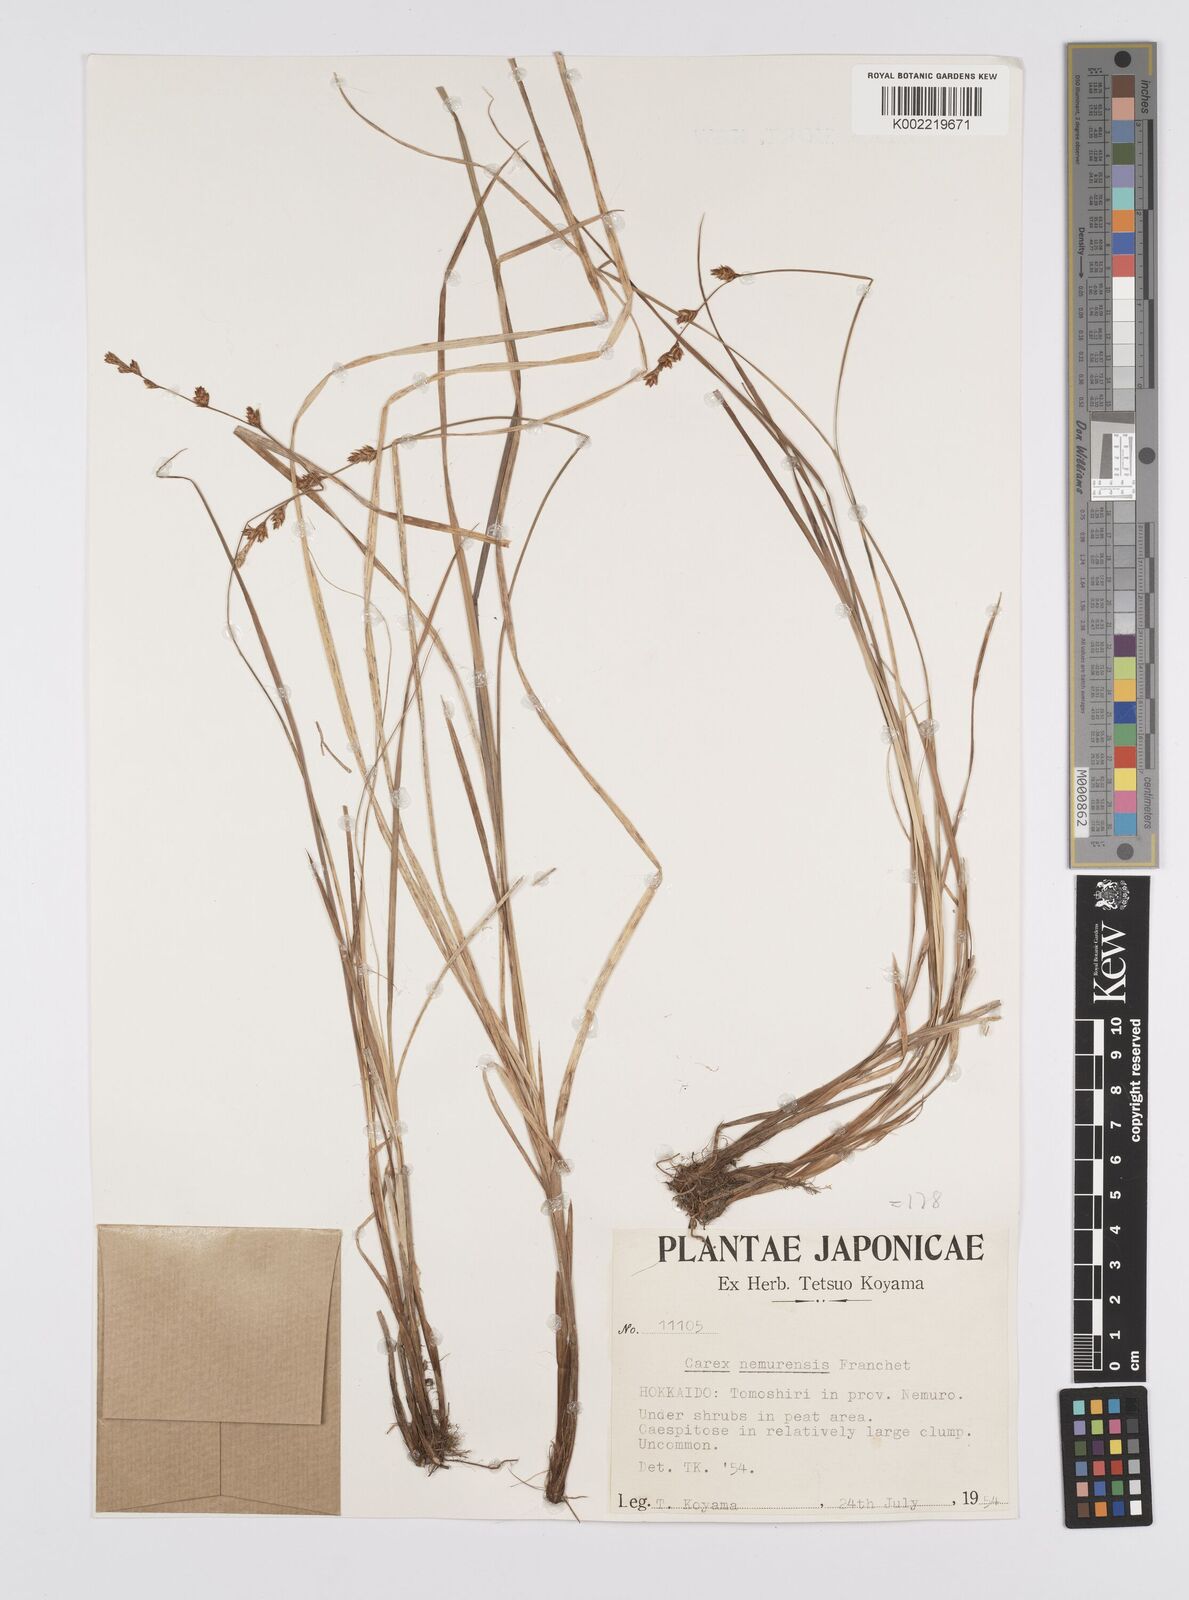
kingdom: Plantae
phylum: Tracheophyta
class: Liliopsida
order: Poales
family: Cyperaceae
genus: Carex
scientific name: Carex traiziscana
